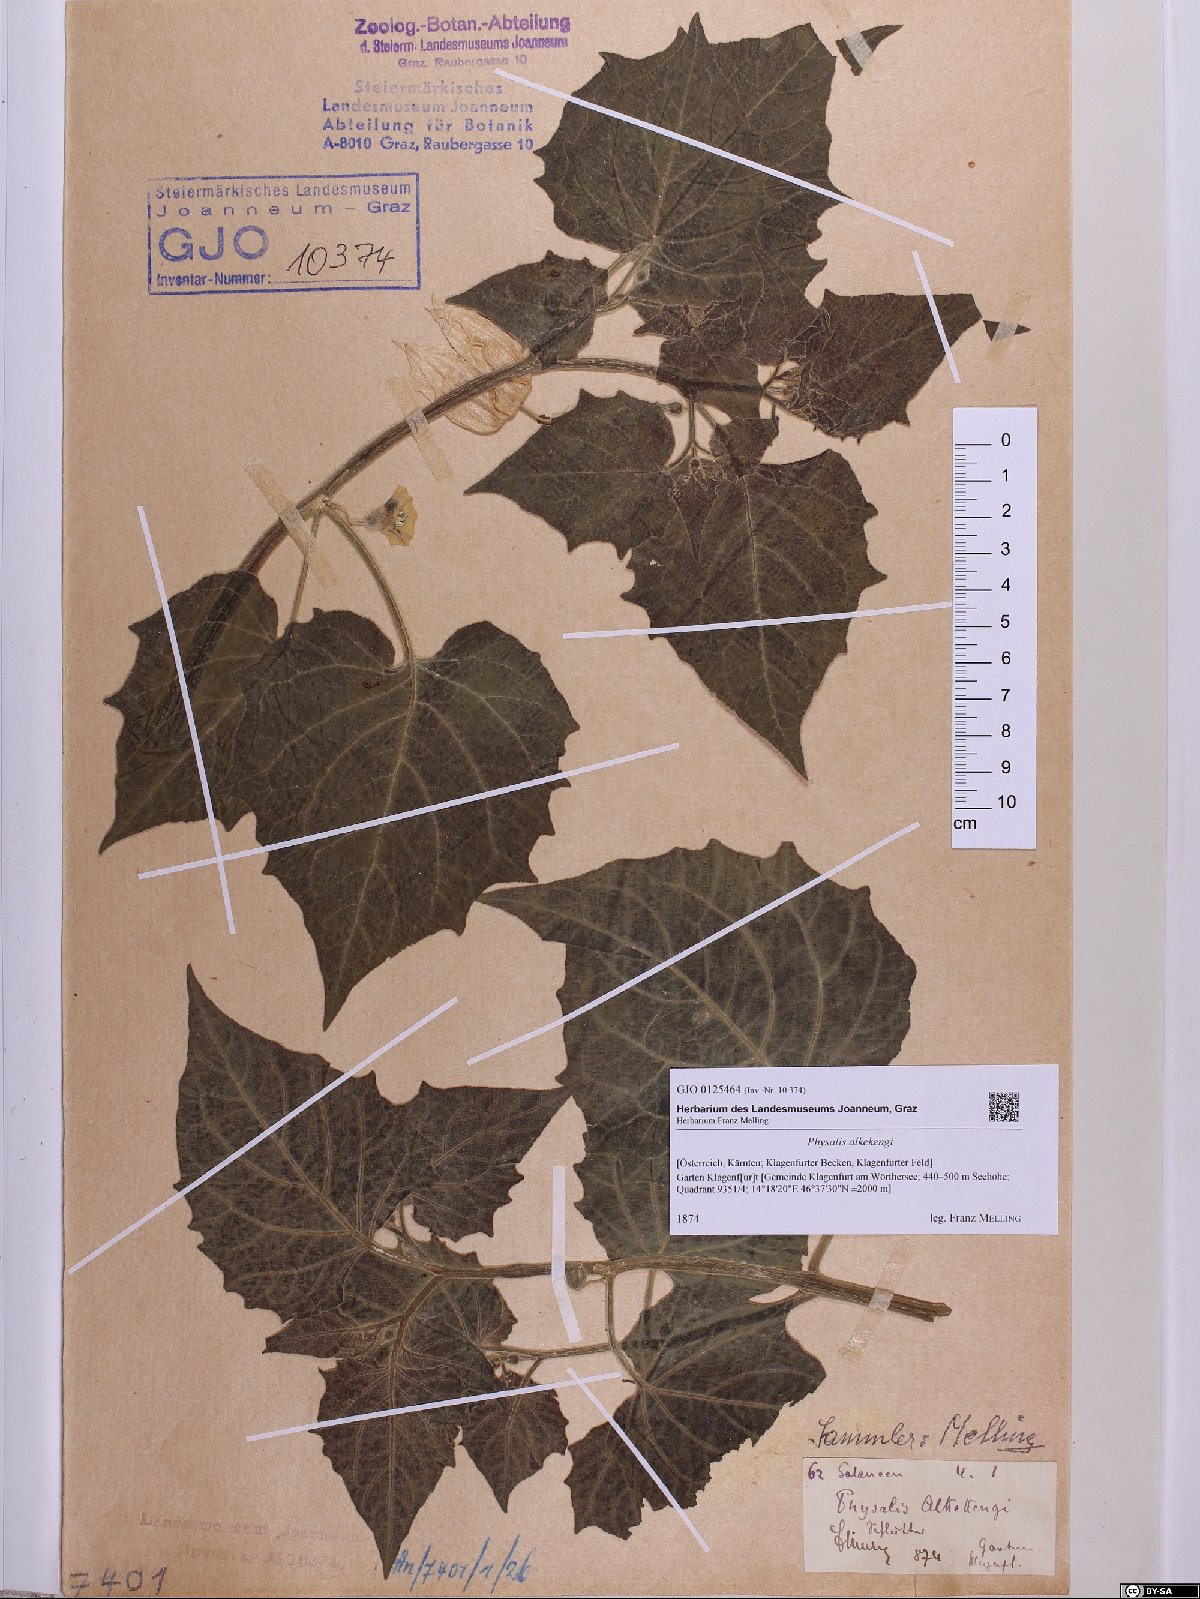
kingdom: Plantae
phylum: Tracheophyta
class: Magnoliopsida
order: Solanales
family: Solanaceae
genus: Alkekengi
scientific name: Alkekengi officinarum
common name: Japanese-lantern
